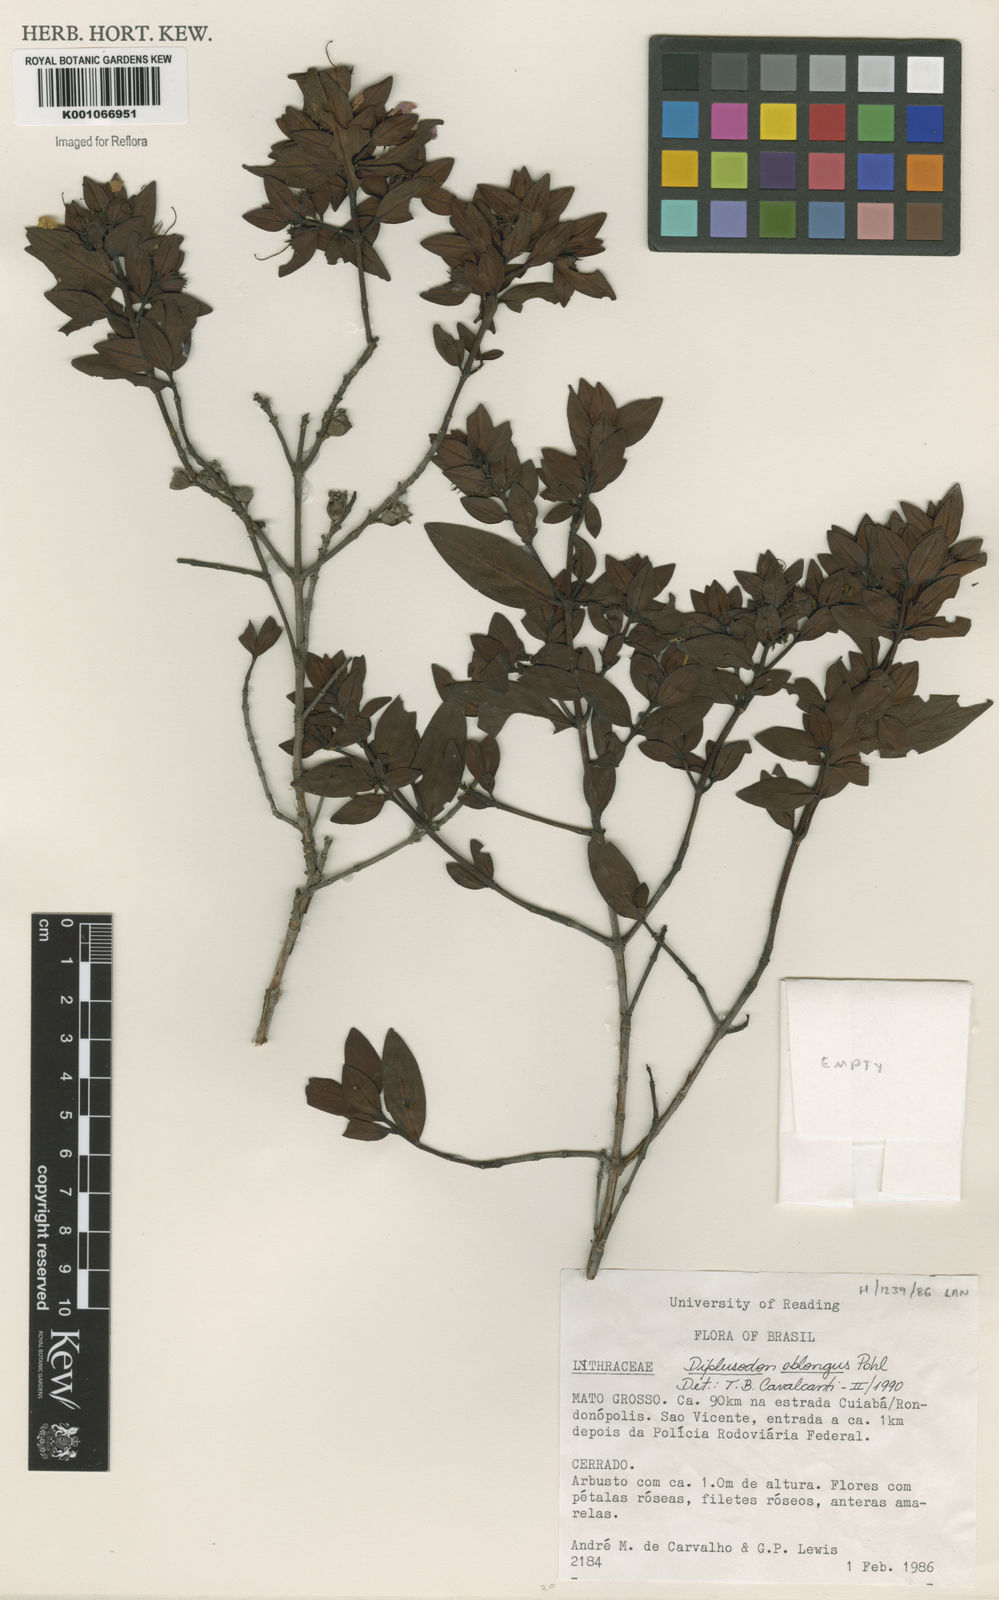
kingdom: Plantae
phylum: Tracheophyta
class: Magnoliopsida
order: Myrtales
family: Lythraceae
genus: Diplusodon
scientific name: Diplusodon oblongus
